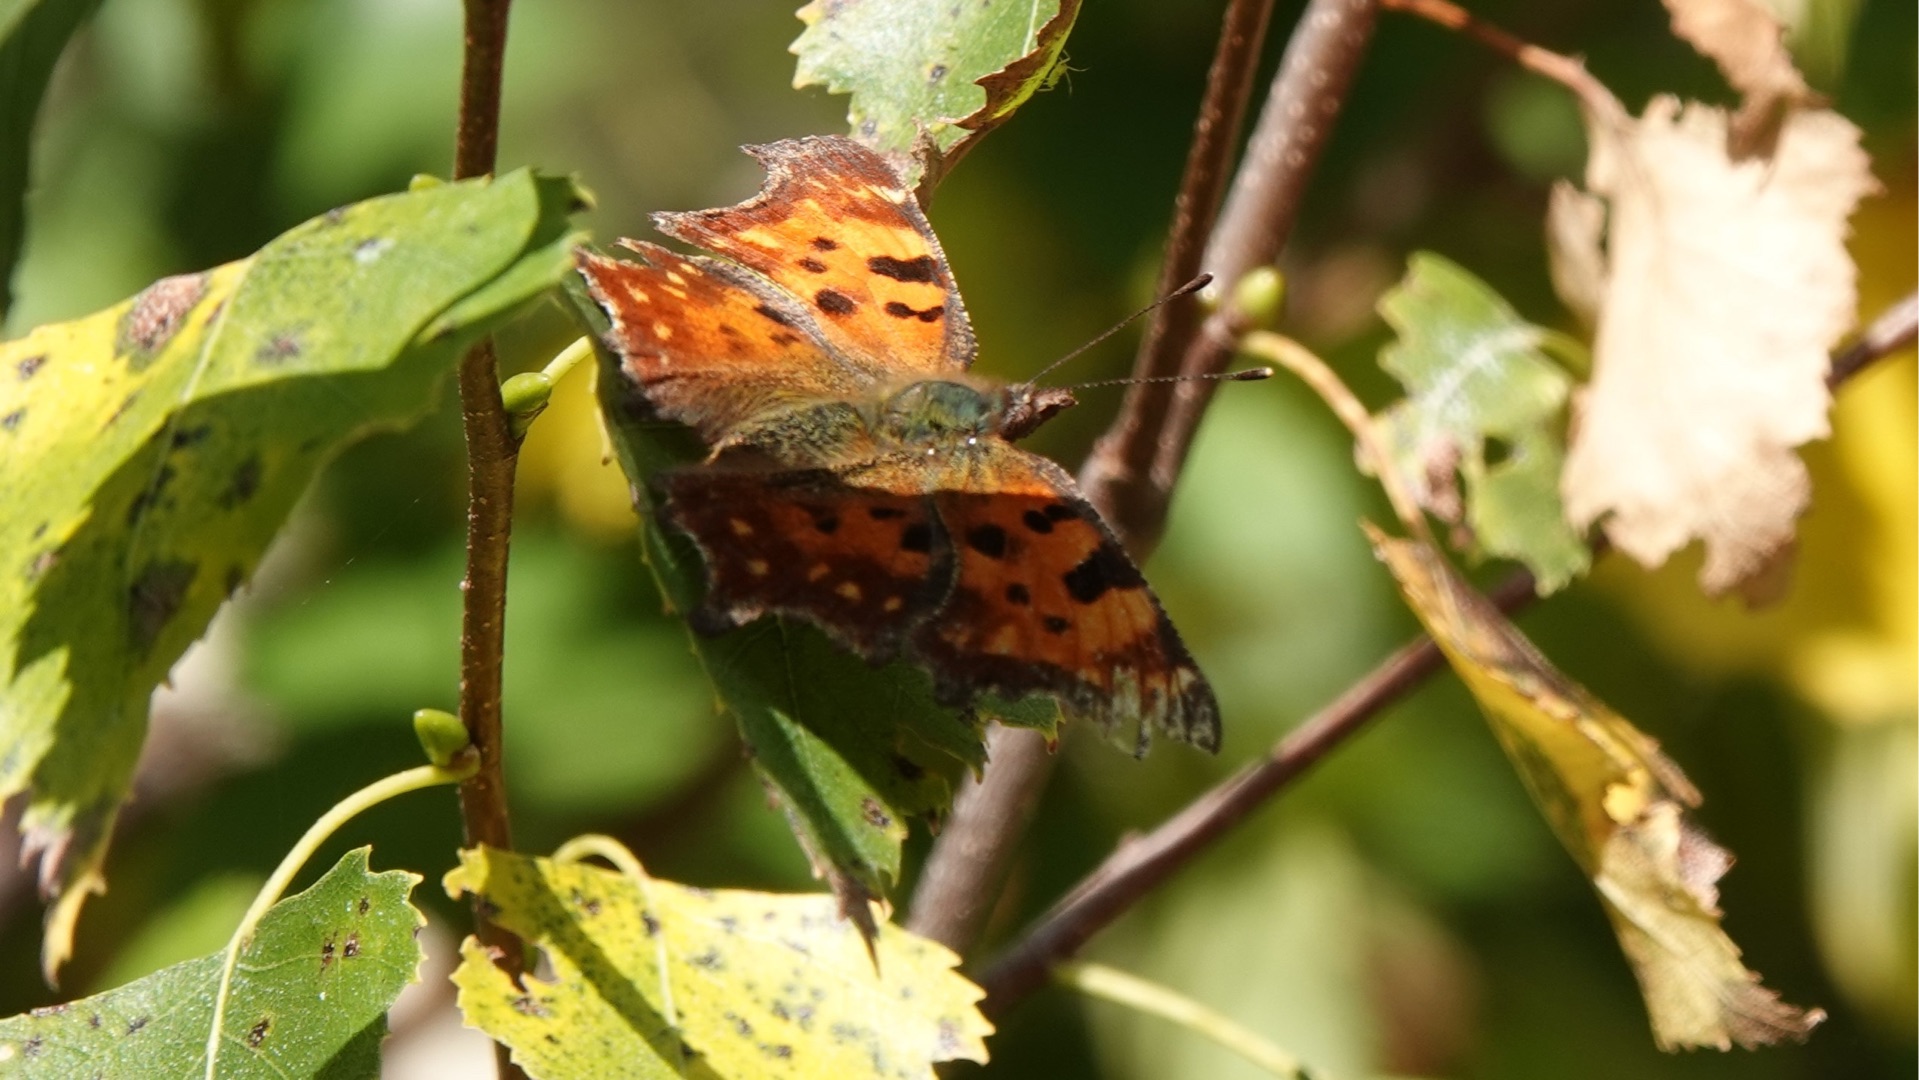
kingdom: Animalia
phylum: Arthropoda
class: Insecta
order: Lepidoptera
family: Nymphalidae
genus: Polygonia
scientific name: Polygonia c-album
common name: Det hvide C
